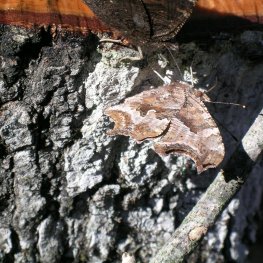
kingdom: Animalia
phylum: Arthropoda
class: Insecta
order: Lepidoptera
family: Nymphalidae
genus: Polygonia
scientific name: Polygonia comma
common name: Eastern Comma
